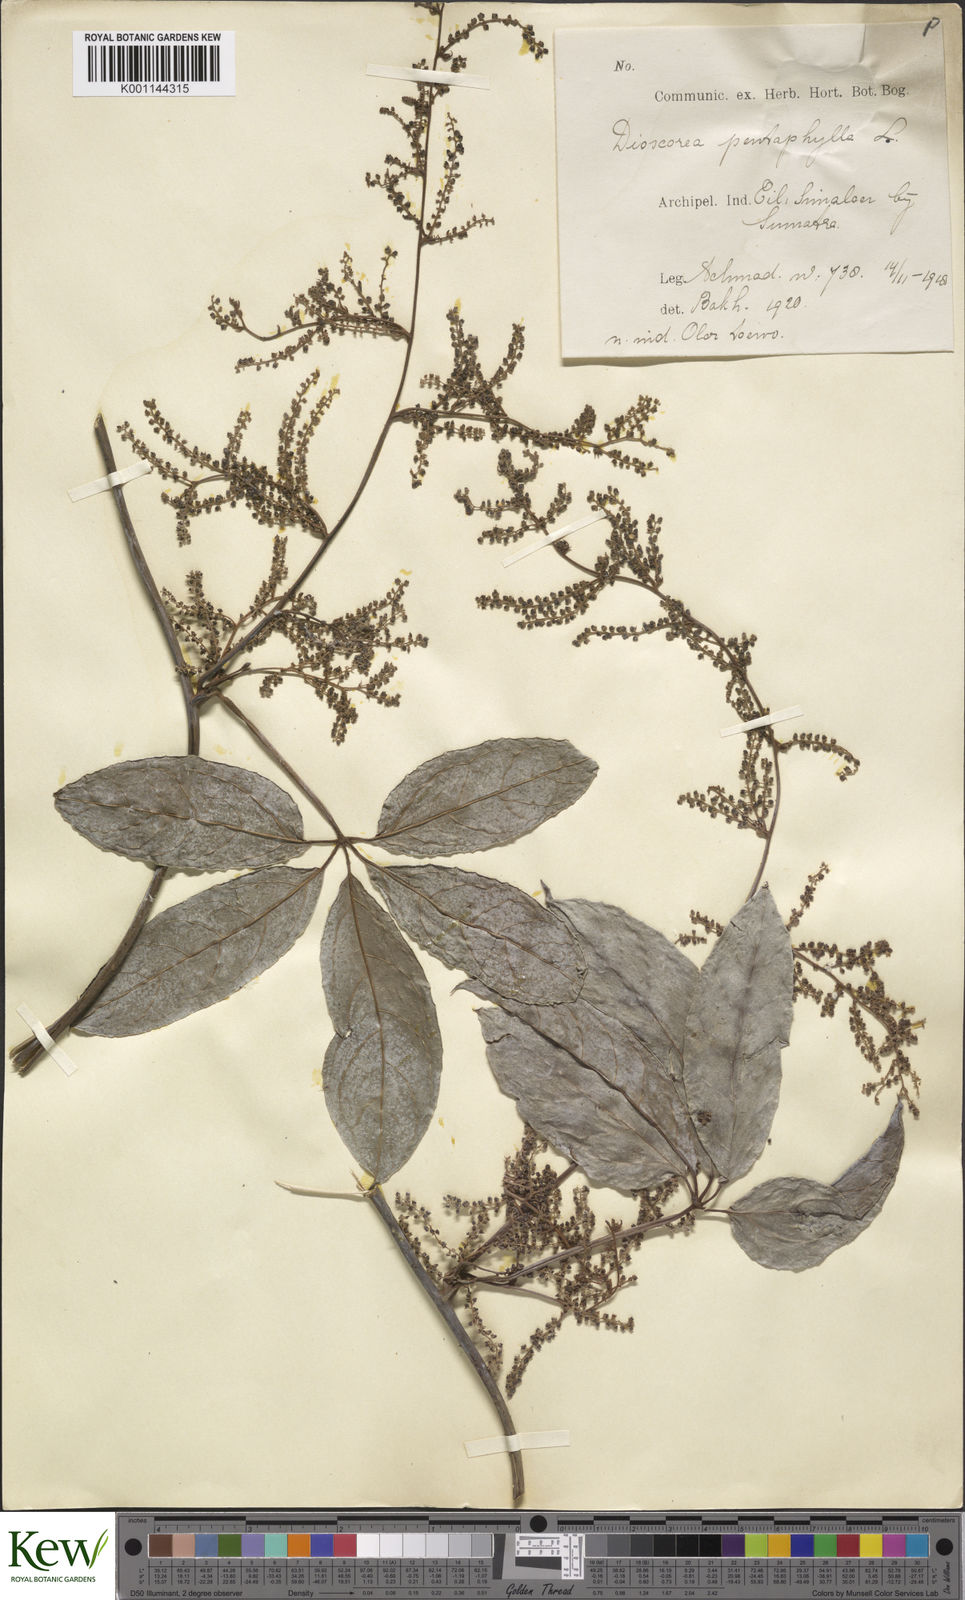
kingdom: Plantae
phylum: Tracheophyta
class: Liliopsida
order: Dioscoreales
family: Dioscoreaceae
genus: Dioscorea
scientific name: Dioscorea scortechinii
